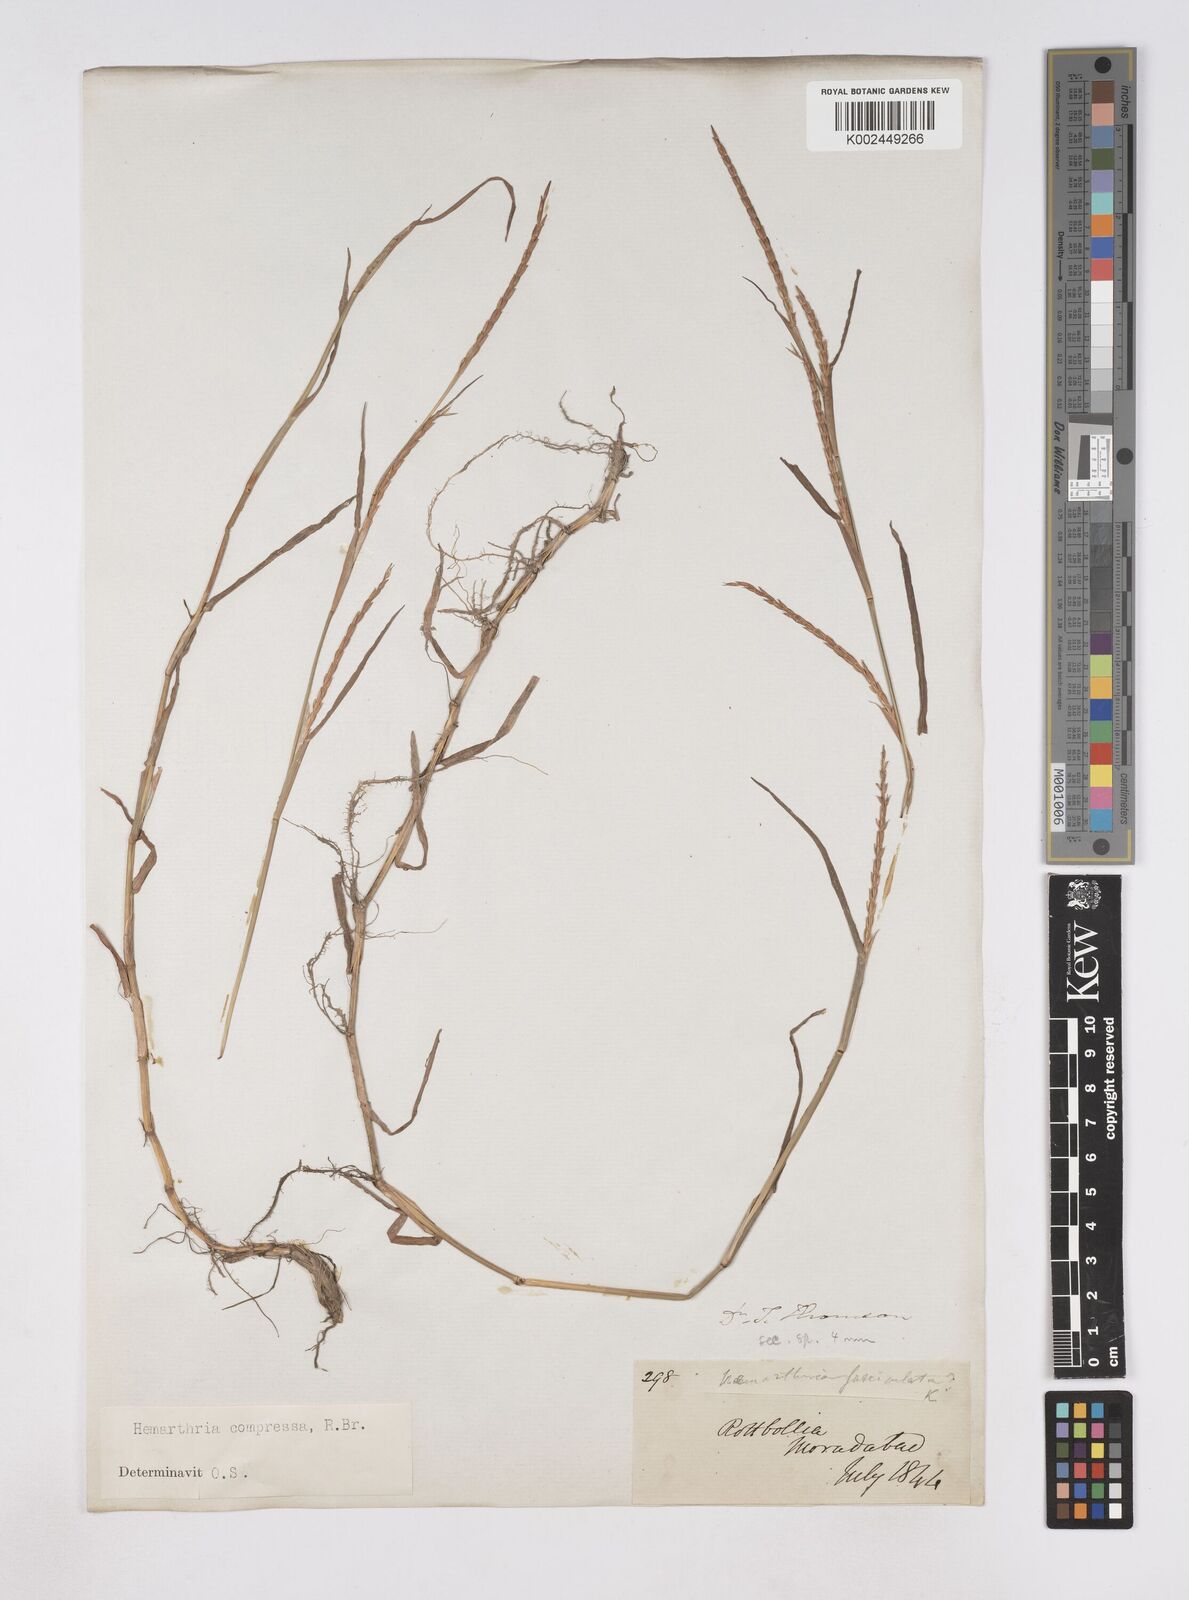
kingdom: Plantae
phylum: Tracheophyta
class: Liliopsida
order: Poales
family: Poaceae
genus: Hemarthria
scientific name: Hemarthria compressa
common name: Whip grass
